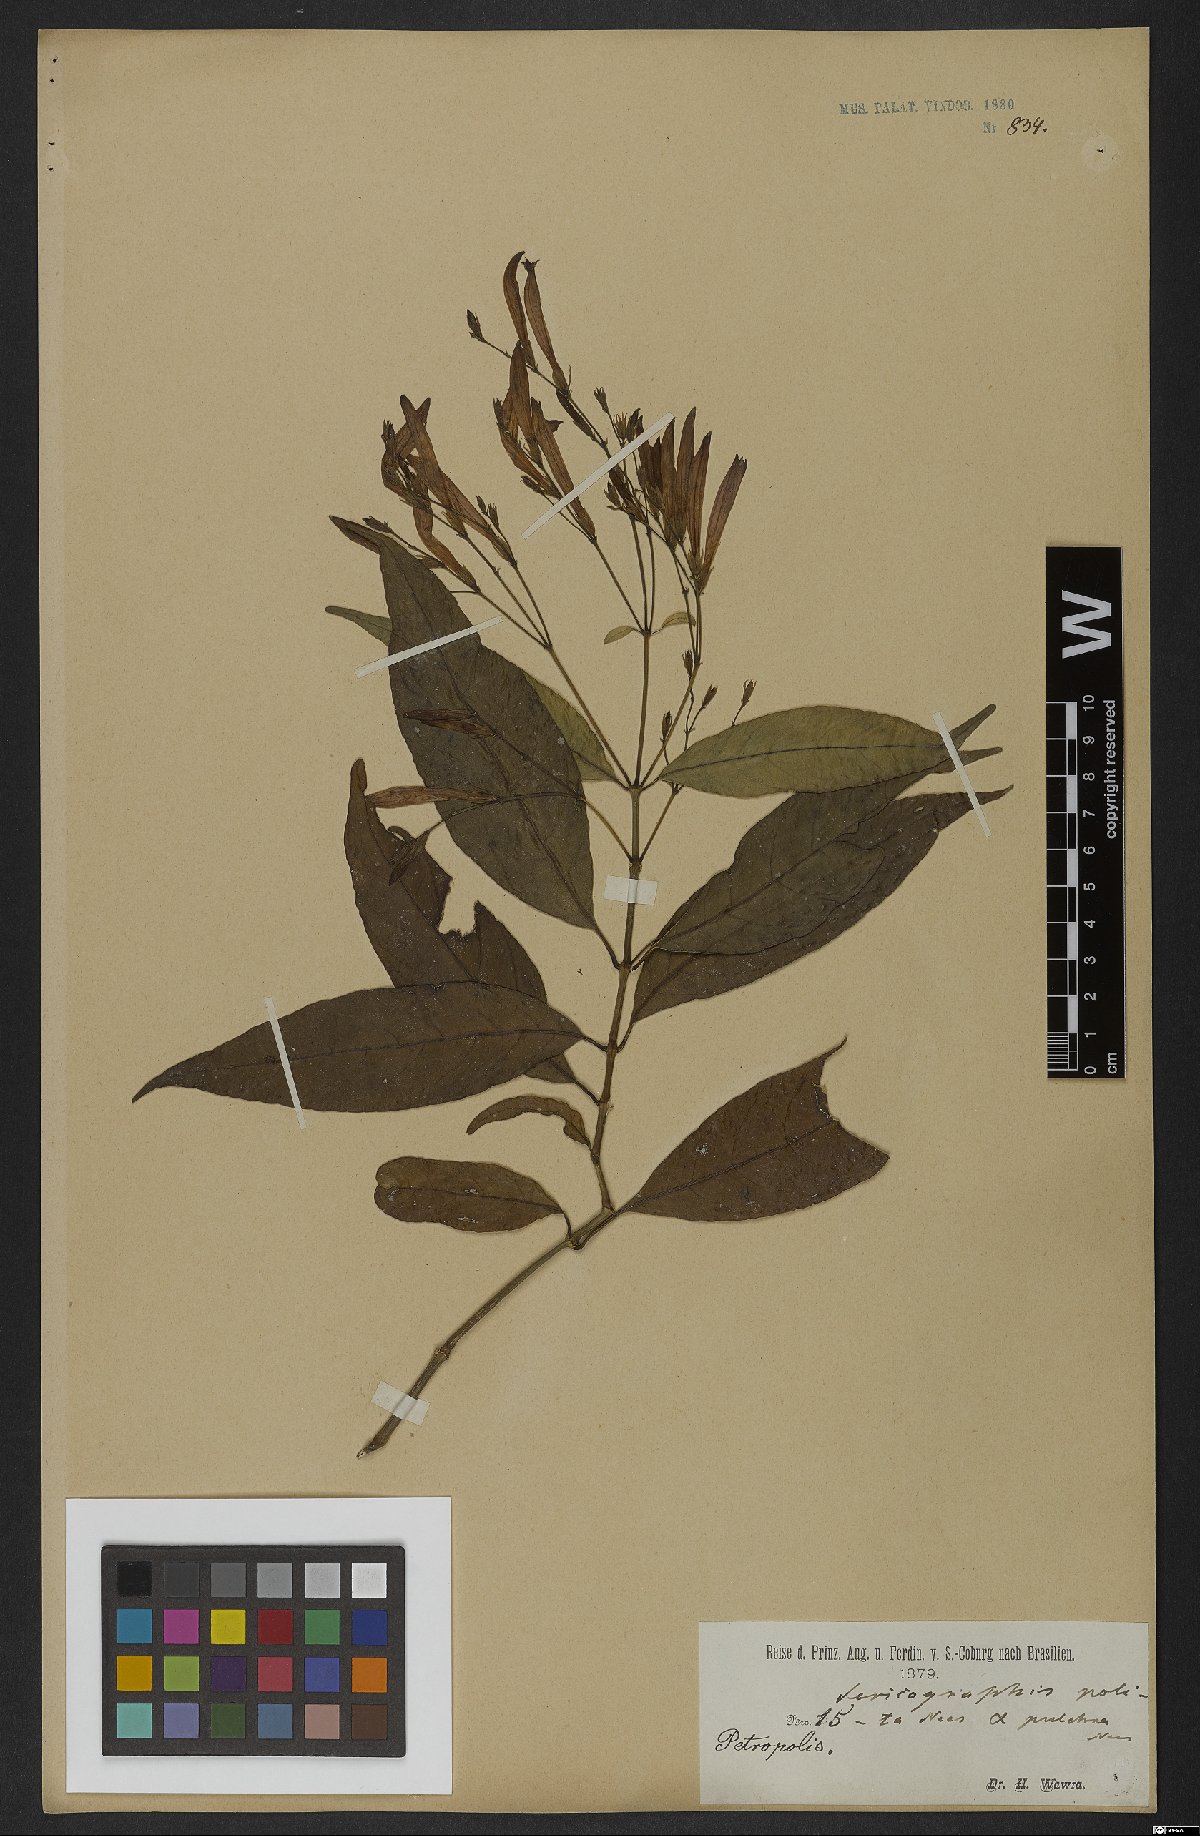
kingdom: Plantae
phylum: Tracheophyta
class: Magnoliopsida
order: Lamiales
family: Acanthaceae
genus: Justicia
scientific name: Justicia polita
